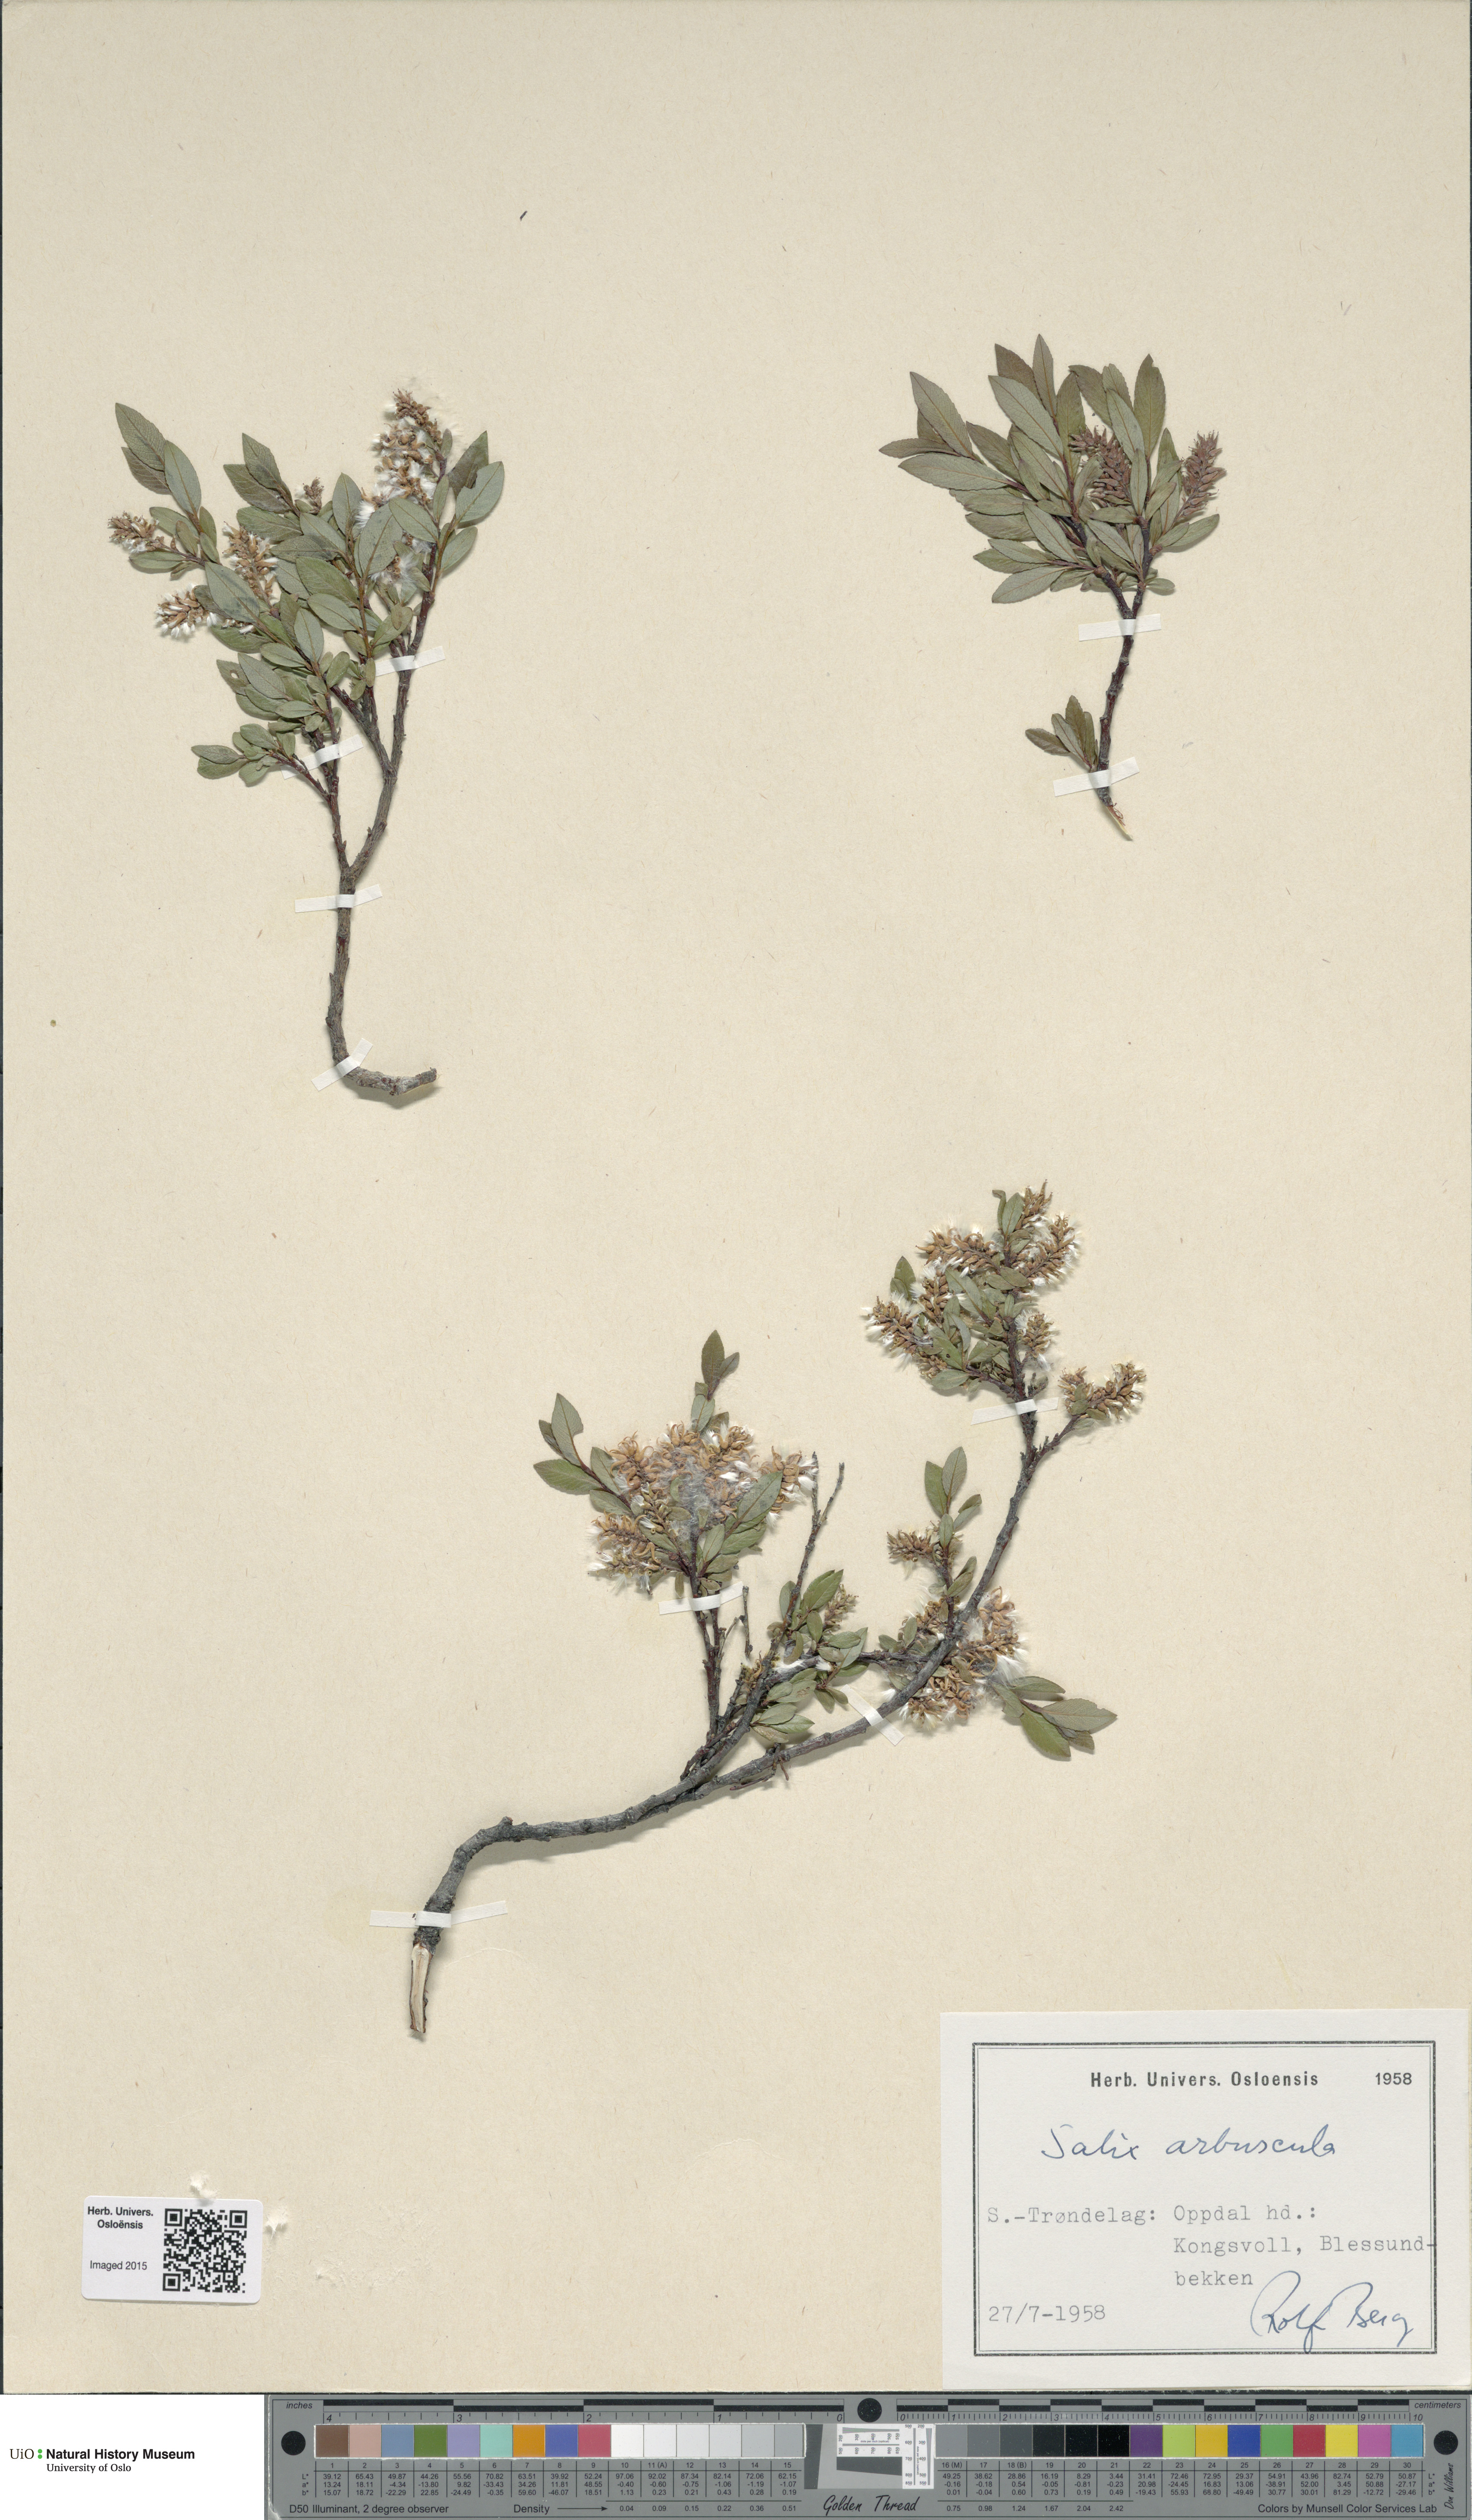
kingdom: Plantae
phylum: Tracheophyta
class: Magnoliopsida
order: Malpighiales
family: Salicaceae
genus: Salix
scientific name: Salix arbuscula
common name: Mountain willow
